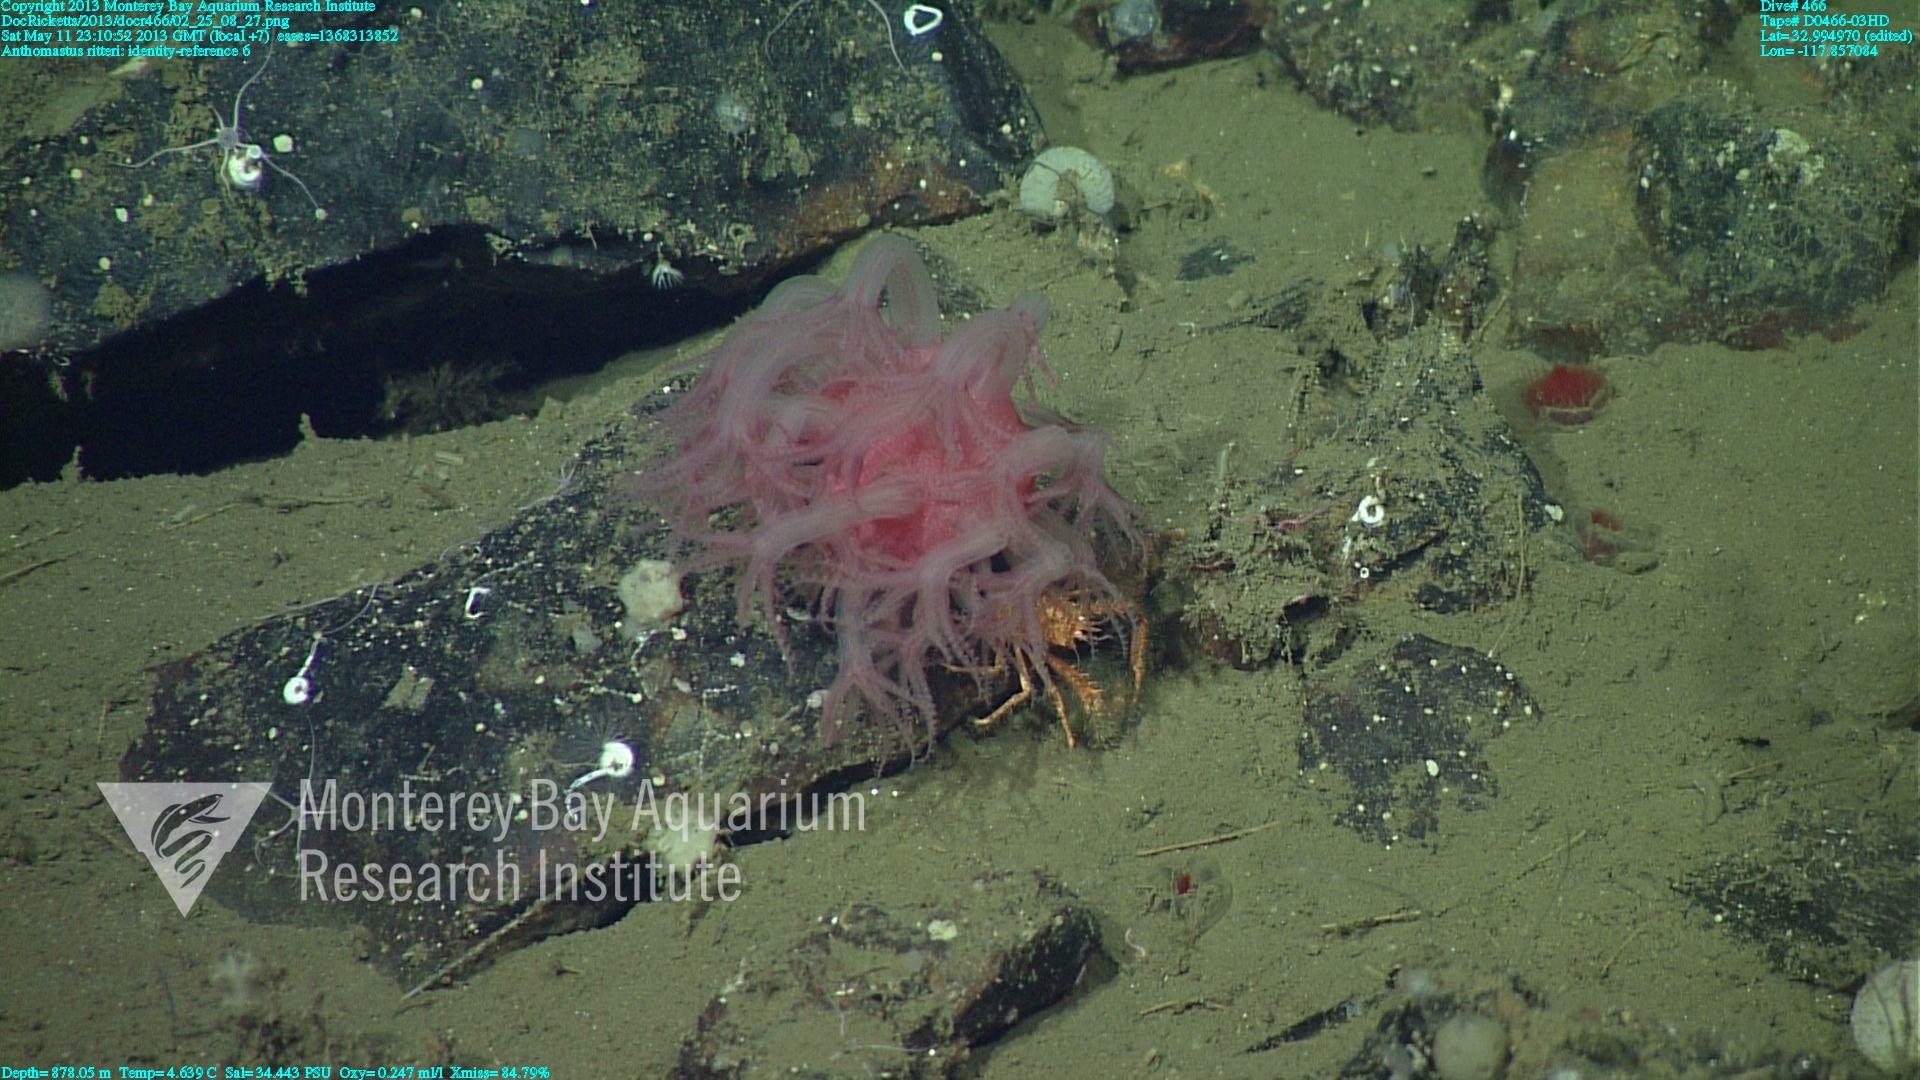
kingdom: Animalia
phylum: Cnidaria
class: Anthozoa
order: Scleralcyonacea
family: Coralliidae
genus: Heteropolypus
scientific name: Heteropolypus ritteri
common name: Ritter's soft coral
